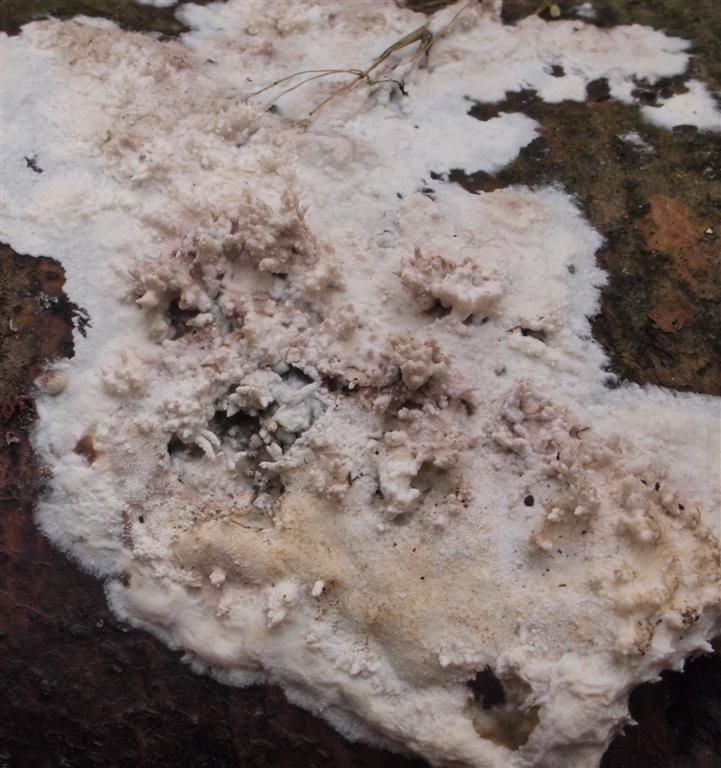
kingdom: Fungi
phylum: Basidiomycota
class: Agaricomycetes
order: Hymenochaetales
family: Schizoporaceae
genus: Xylodon
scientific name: Xylodon radula
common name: grovtandet kalkskind
